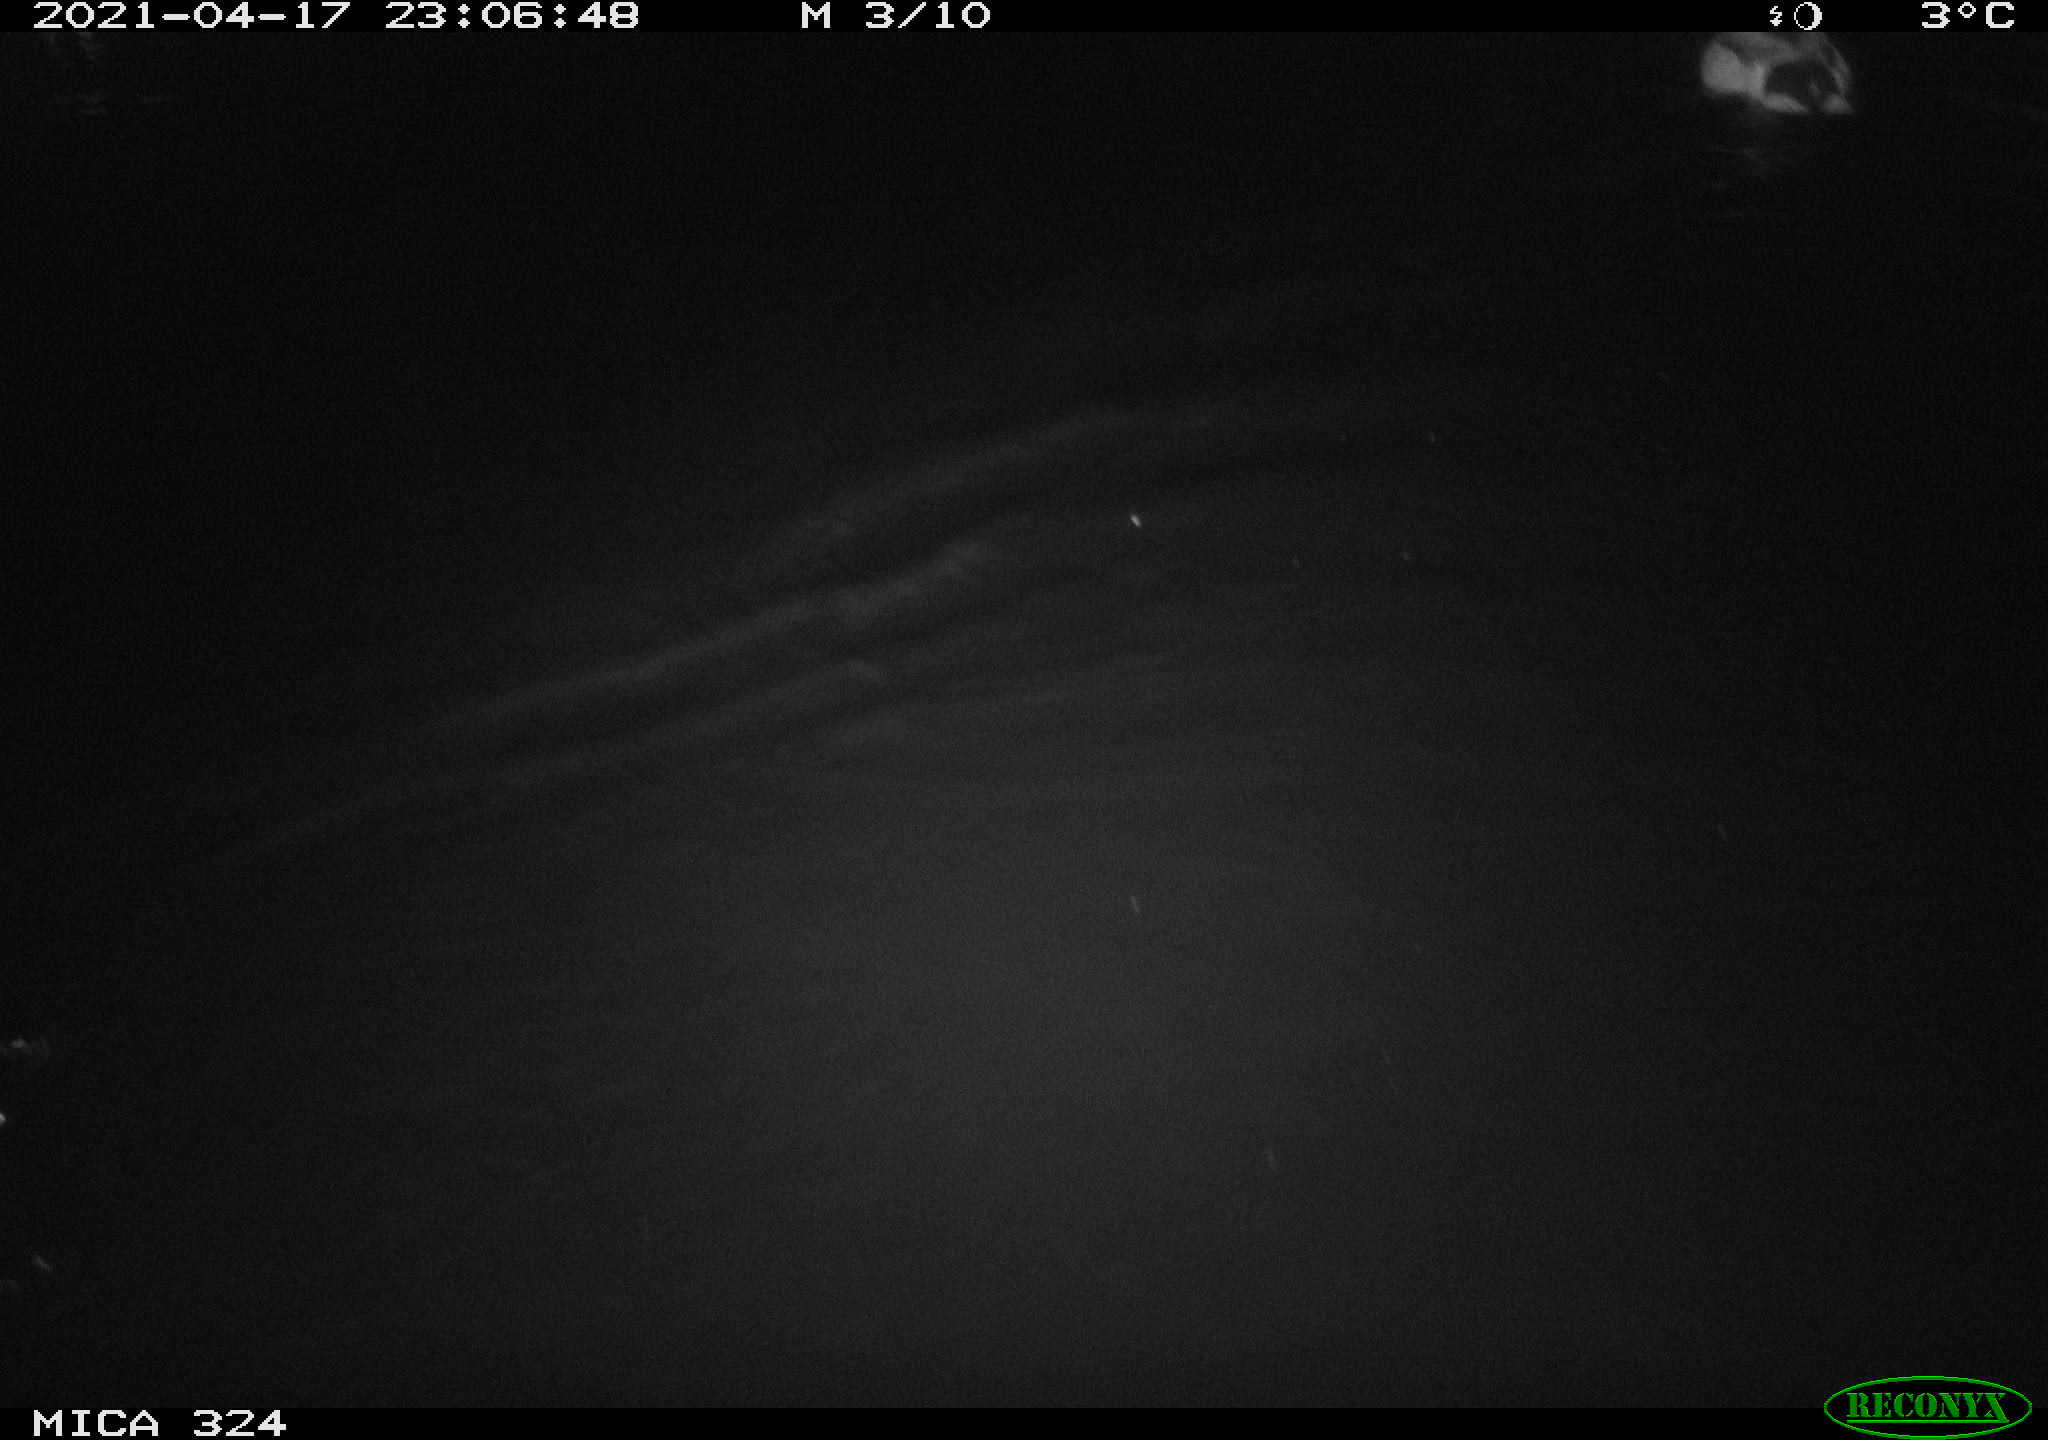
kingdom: Animalia
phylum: Chordata
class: Aves
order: Anseriformes
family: Anatidae
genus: Anas
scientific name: Anas platyrhynchos
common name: Mallard
